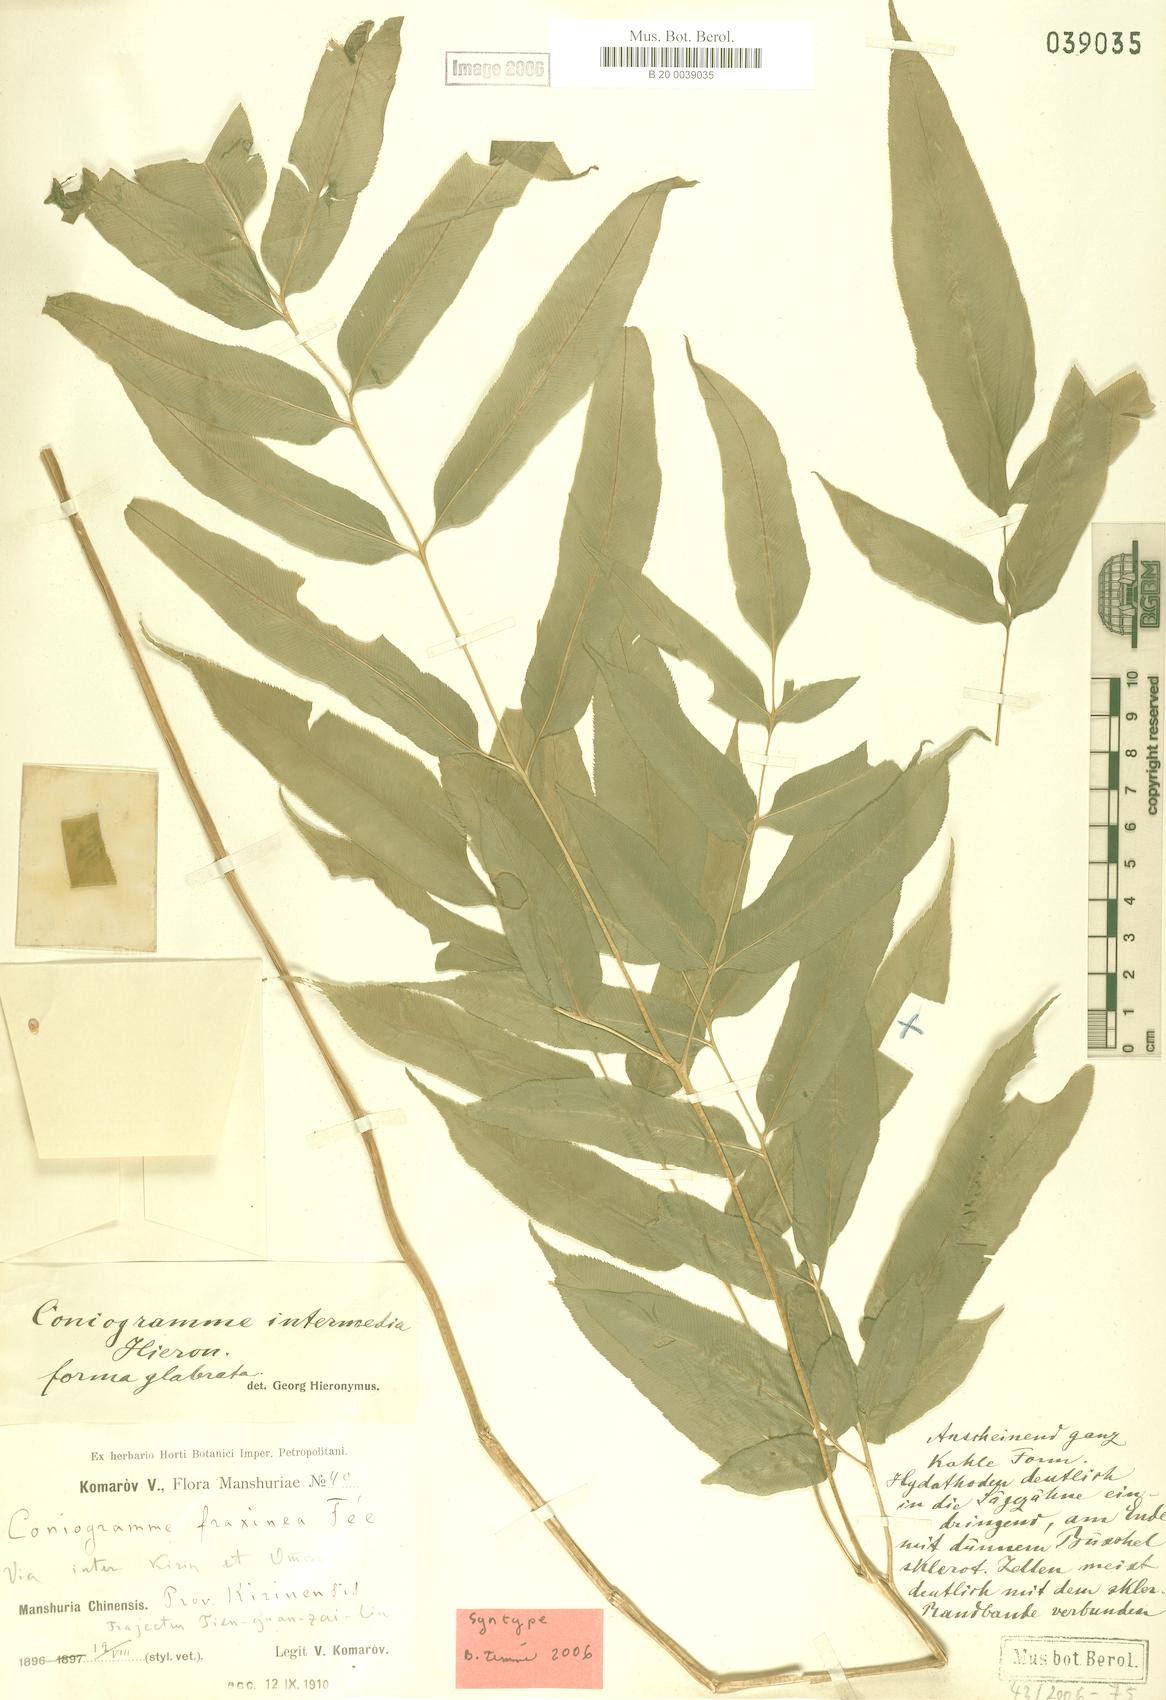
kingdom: Plantae
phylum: Tracheophyta
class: Polypodiopsida
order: Polypodiales
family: Pteridaceae
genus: Coniogramme
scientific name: Coniogramme intermedia
